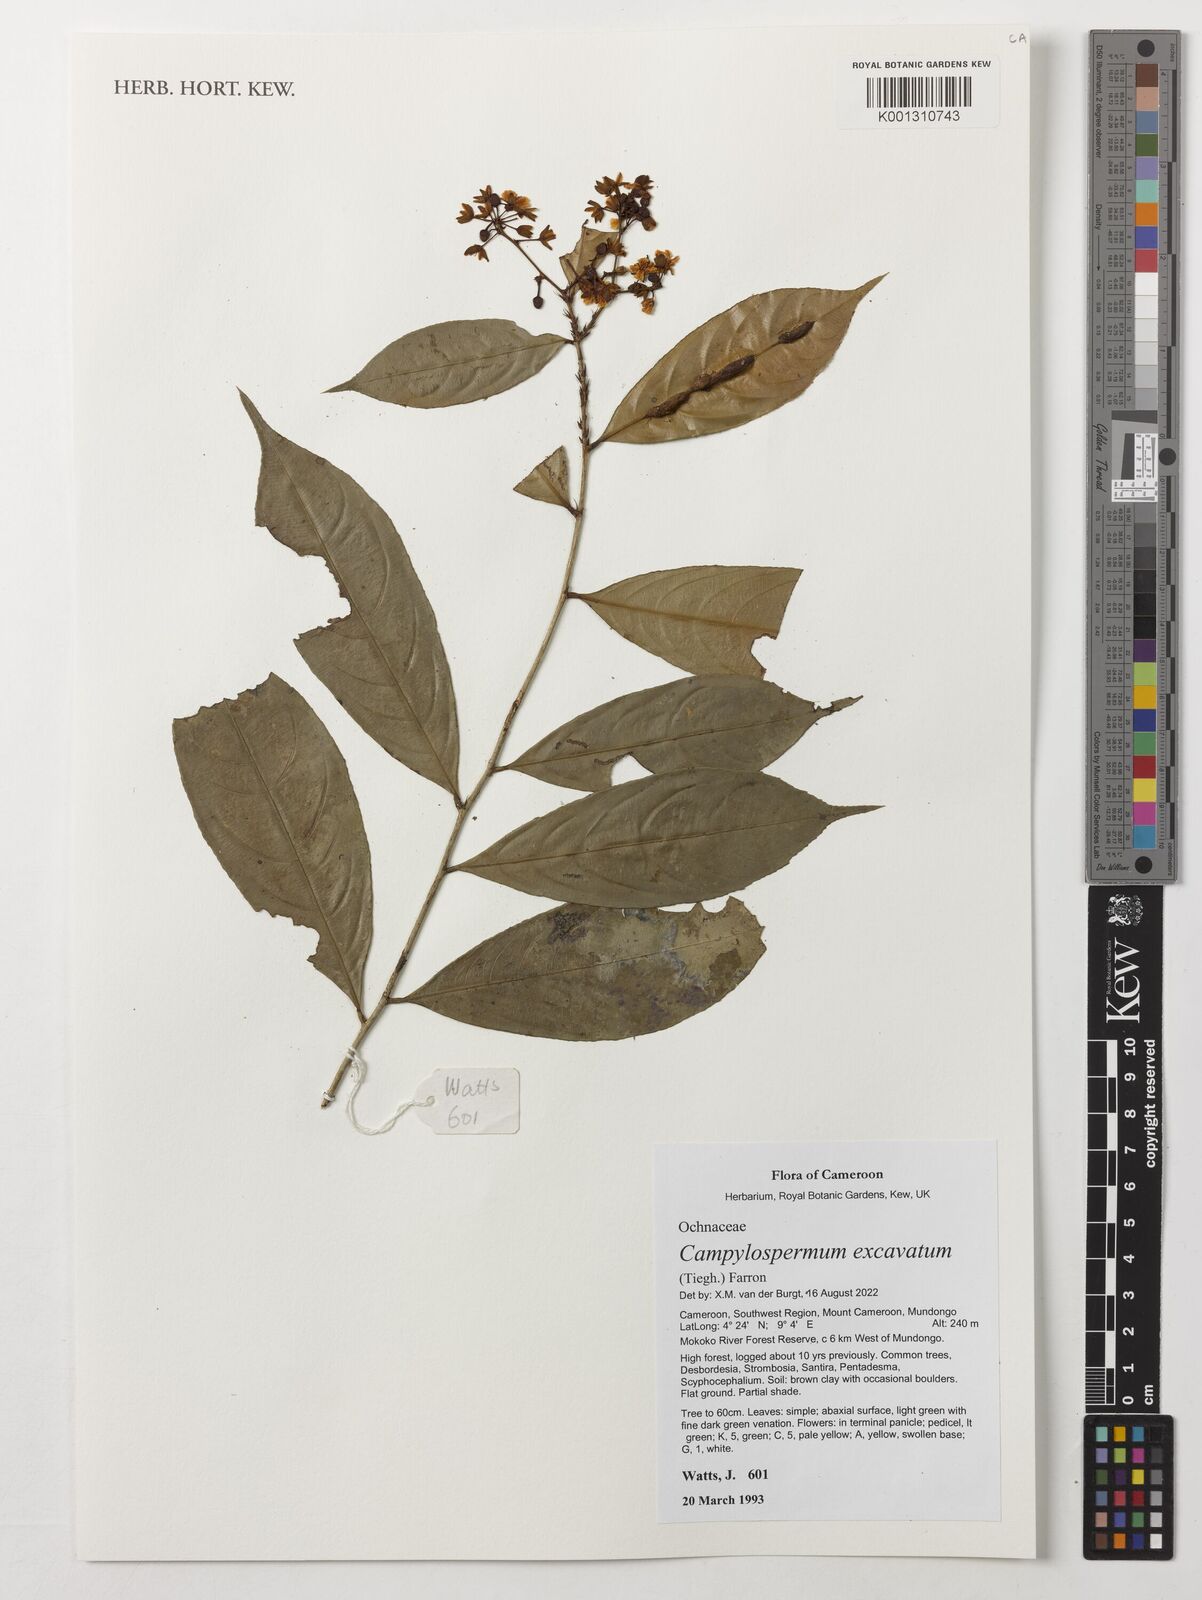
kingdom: Plantae
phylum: Tracheophyta
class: Magnoliopsida
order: Malpighiales
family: Ochnaceae
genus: Campylospermum
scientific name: Campylospermum excavatum
